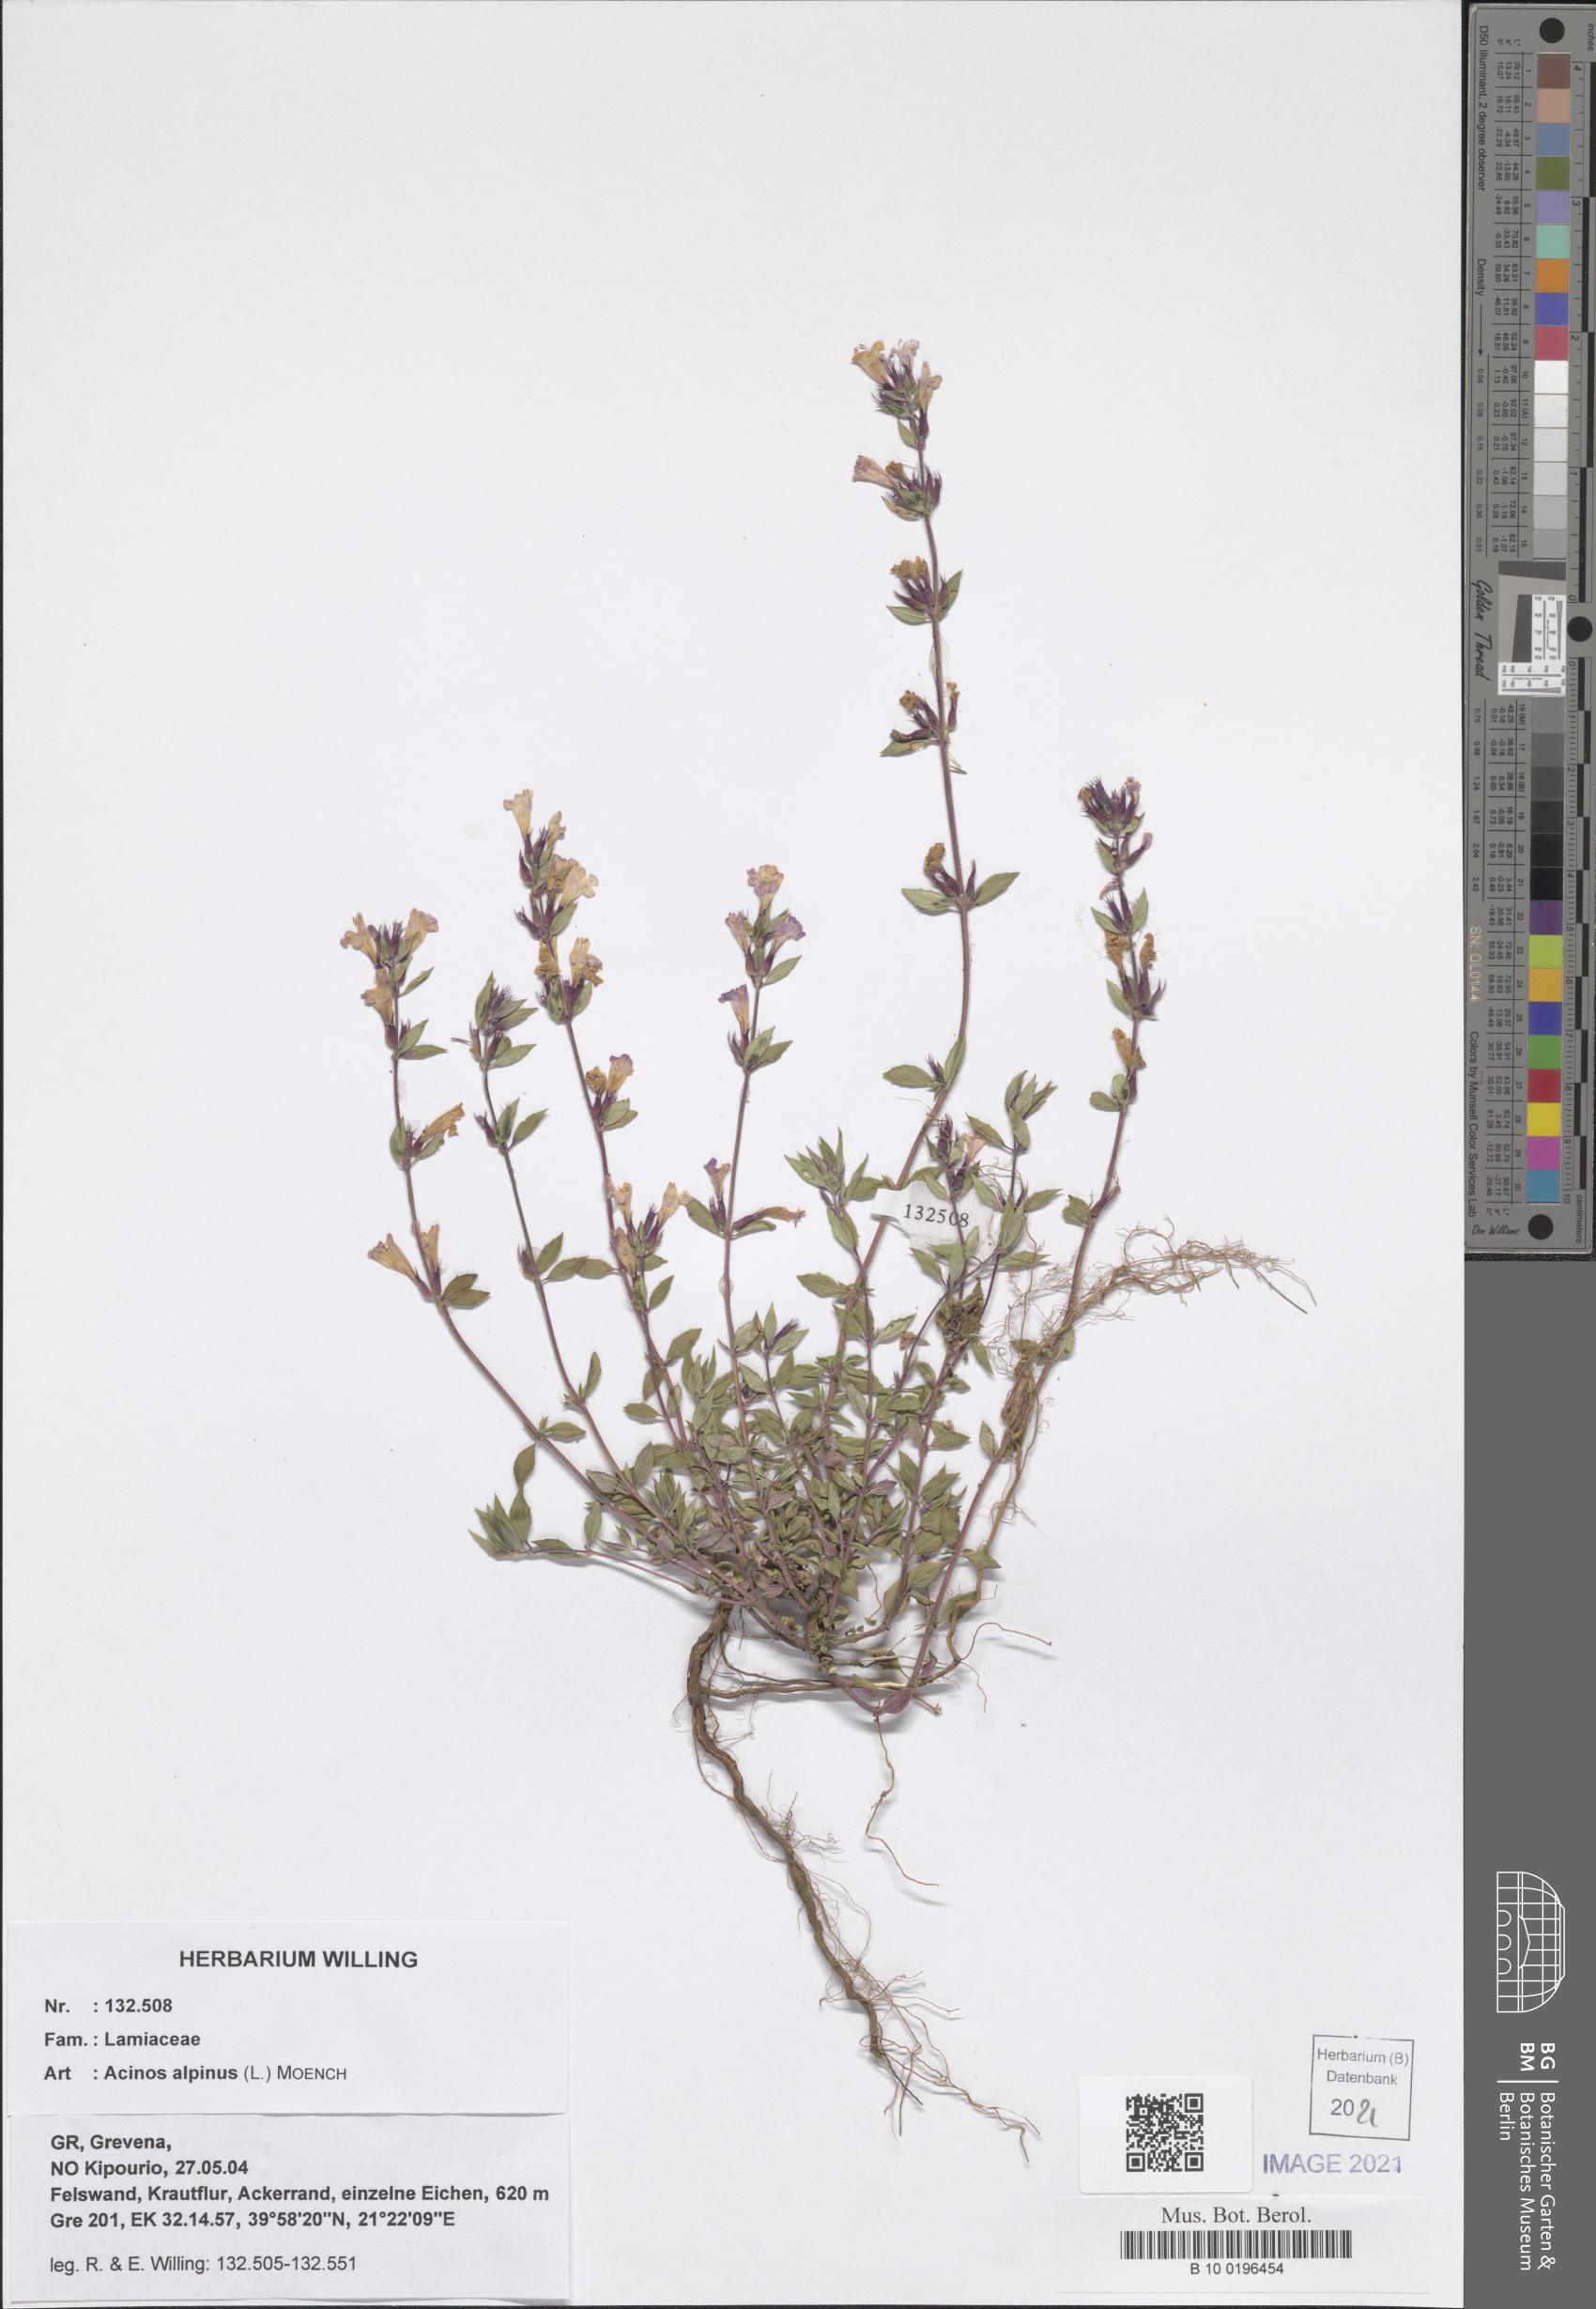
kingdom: Plantae
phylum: Tracheophyta
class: Magnoliopsida
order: Lamiales
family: Lamiaceae
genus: Clinopodium
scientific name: Clinopodium alpinum
